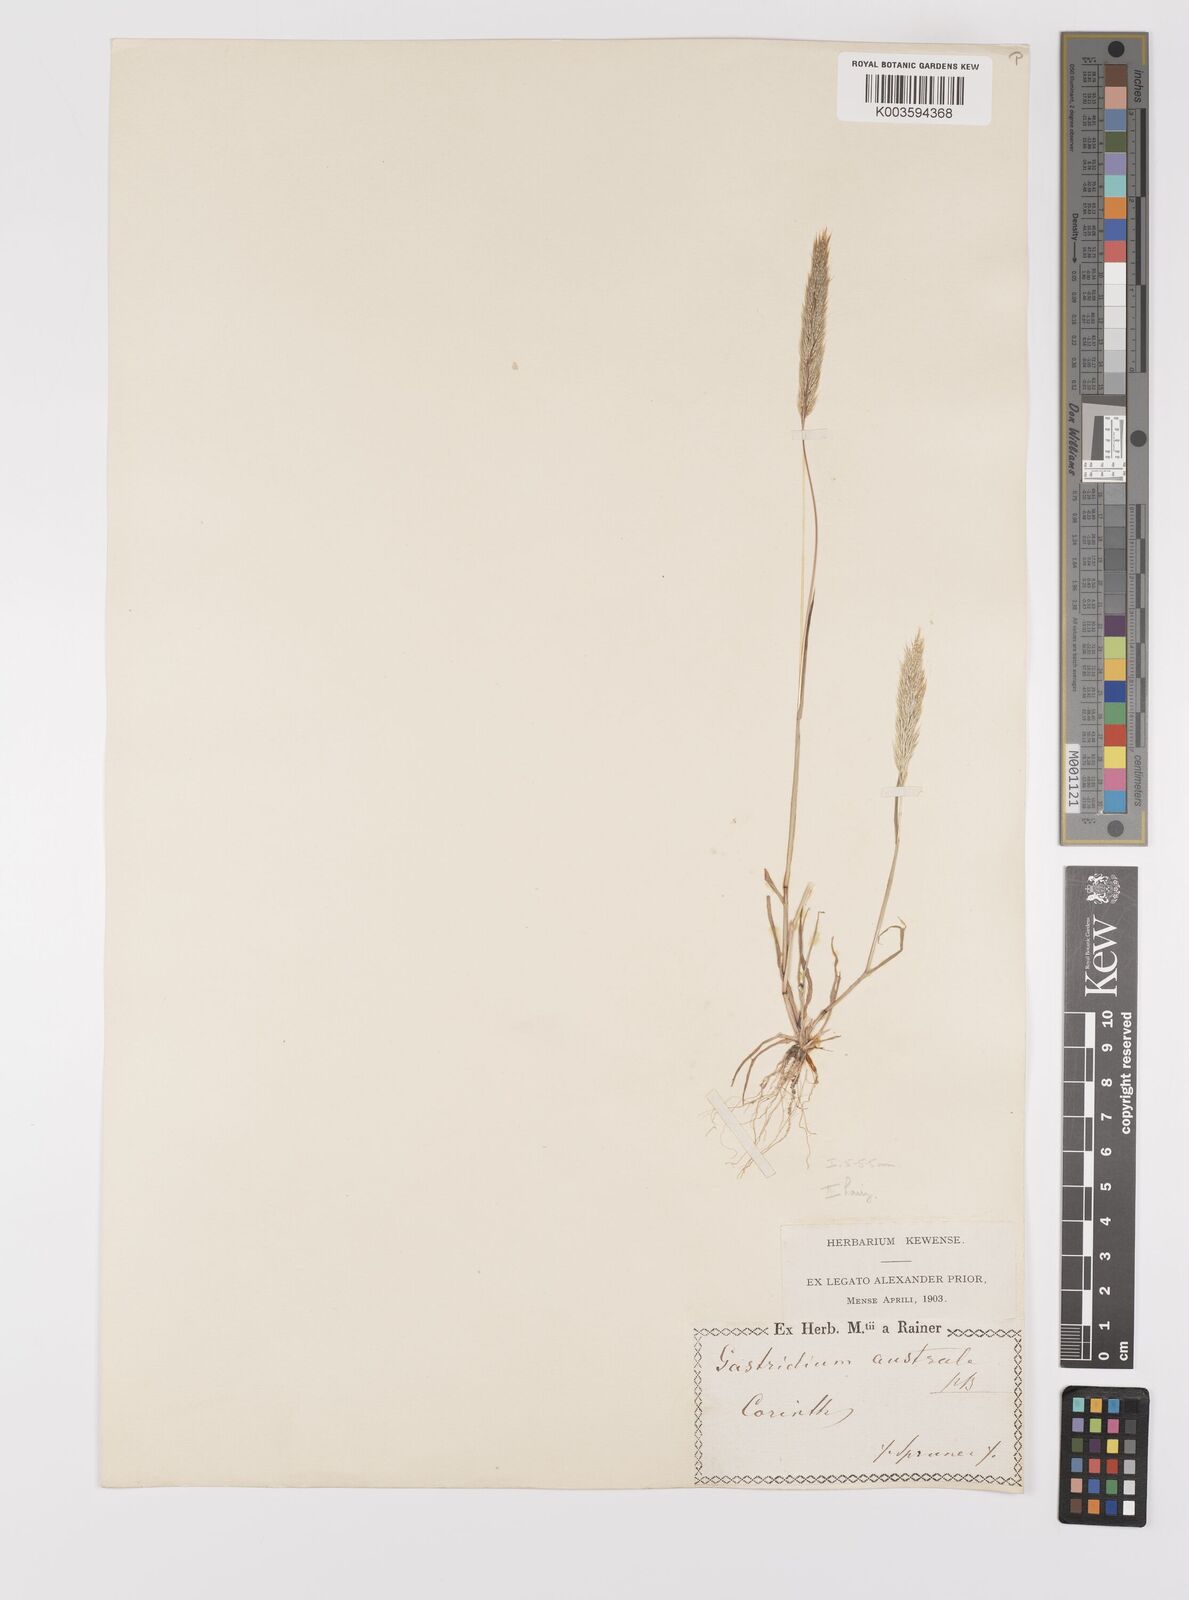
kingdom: Plantae
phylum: Tracheophyta
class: Liliopsida
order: Poales
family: Poaceae
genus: Gastridium
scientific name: Gastridium phleoides
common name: Nit grass
